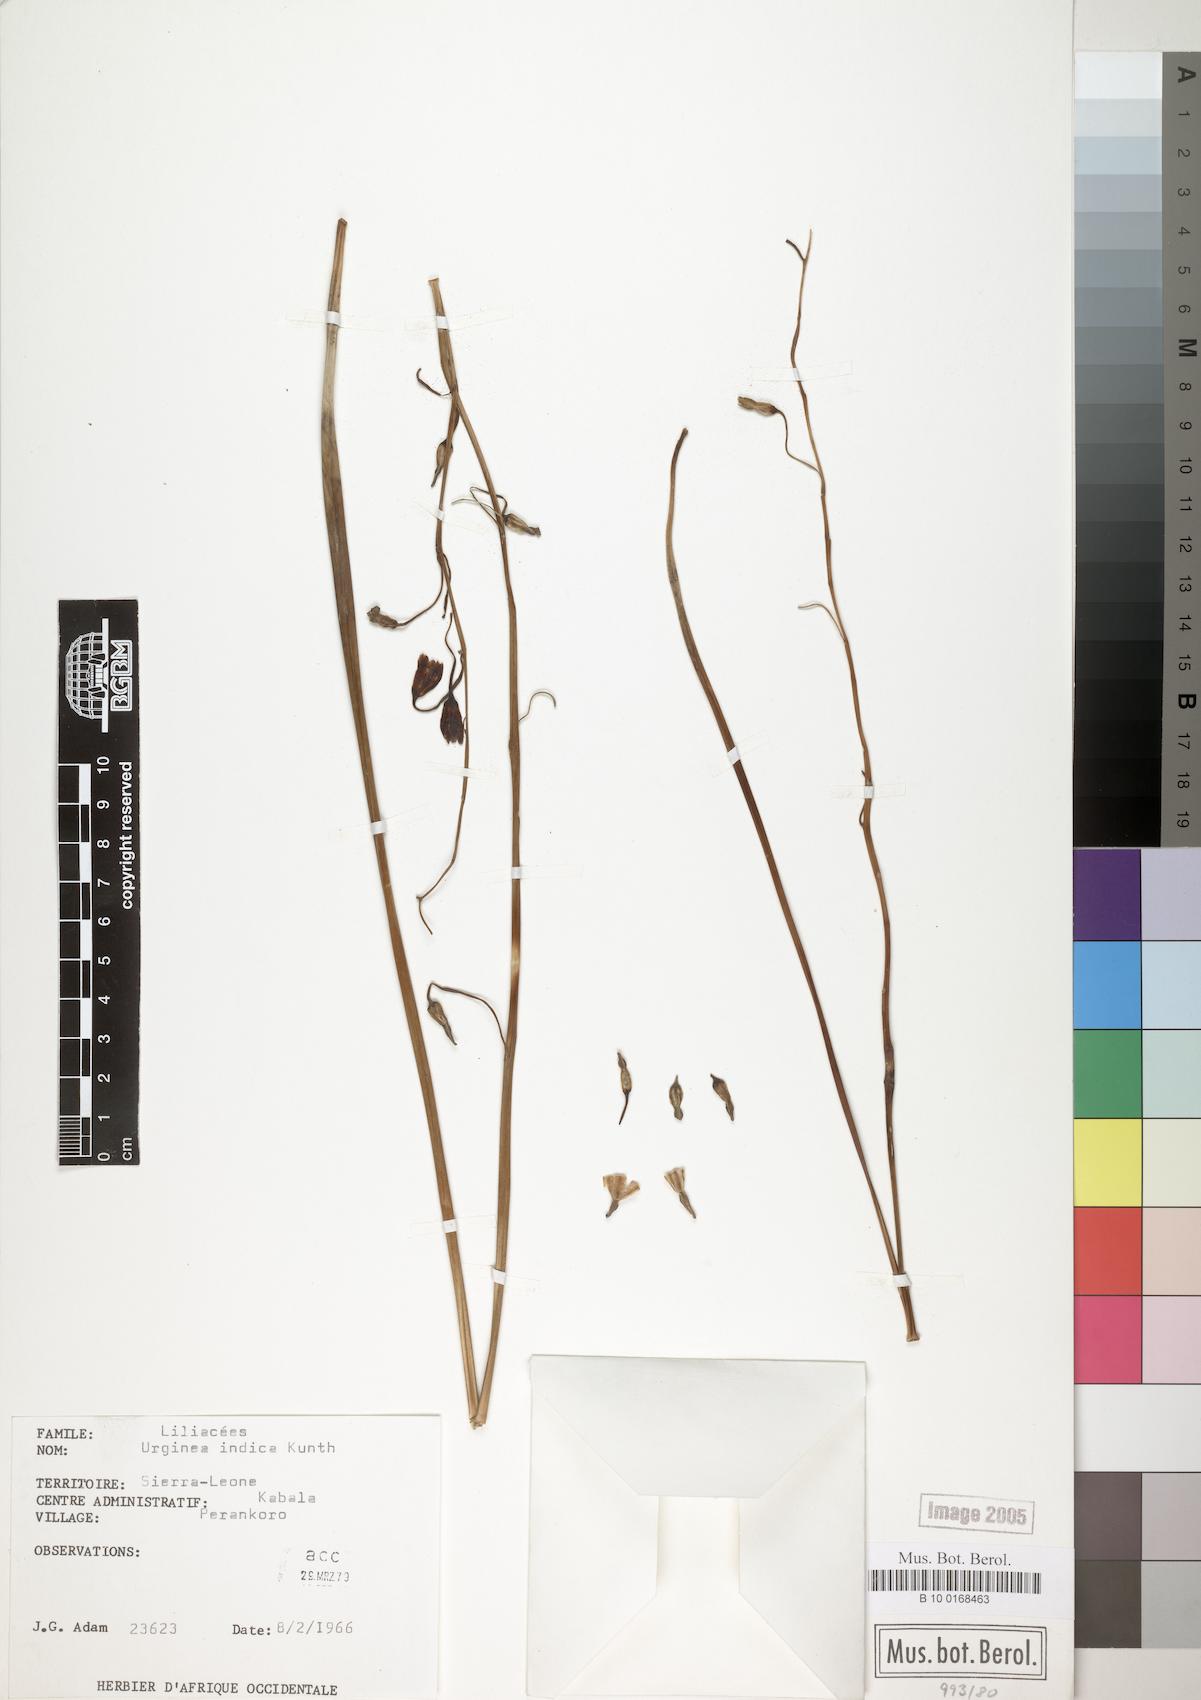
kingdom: Plantae
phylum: Tracheophyta
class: Liliopsida
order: Asparagales
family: Asparagaceae
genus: Drimia
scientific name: Drimia indica
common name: Indian-squill
